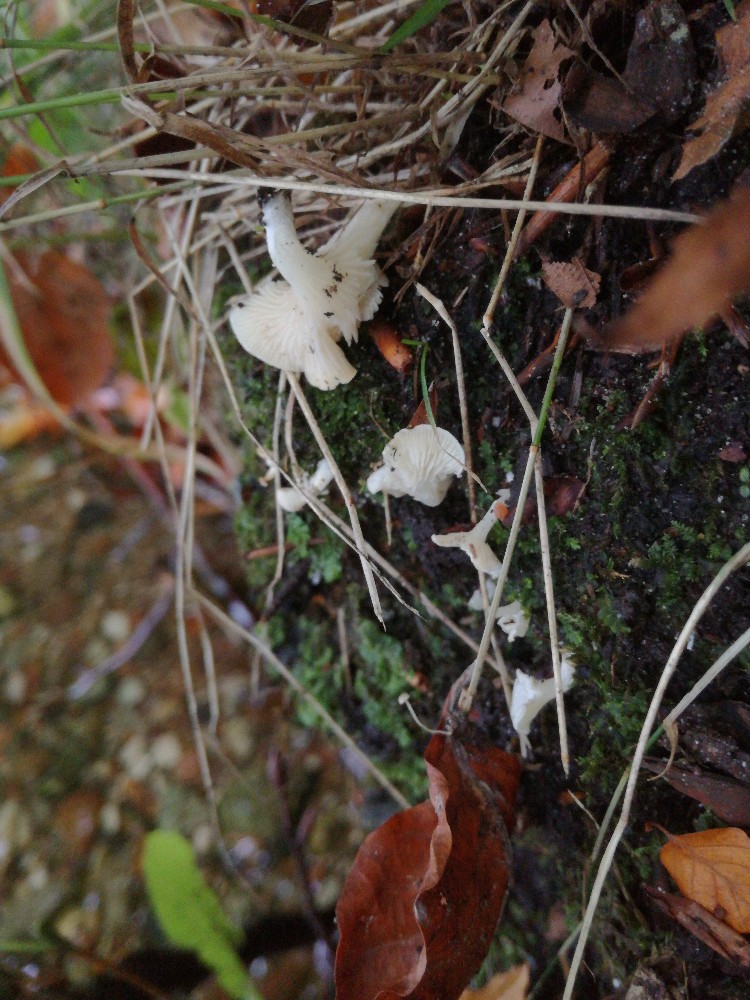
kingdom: Fungi
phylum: Basidiomycota
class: Agaricomycetes
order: Agaricales
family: Entolomataceae
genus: Clitopilus
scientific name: Clitopilus scyphoides
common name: spinkel melhat
